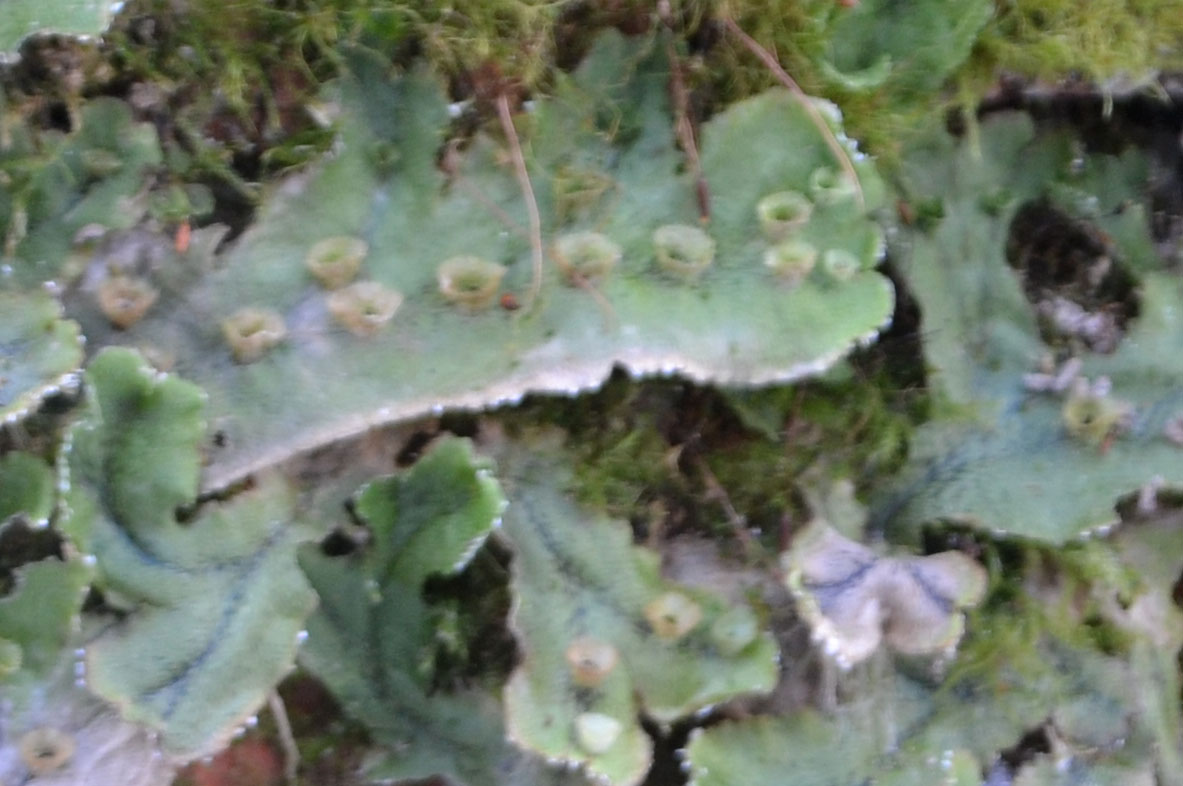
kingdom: Plantae
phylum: Marchantiophyta
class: Marchantiopsida
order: Marchantiales
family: Marchantiaceae
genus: Marchantia
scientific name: Marchantia polymorpha
